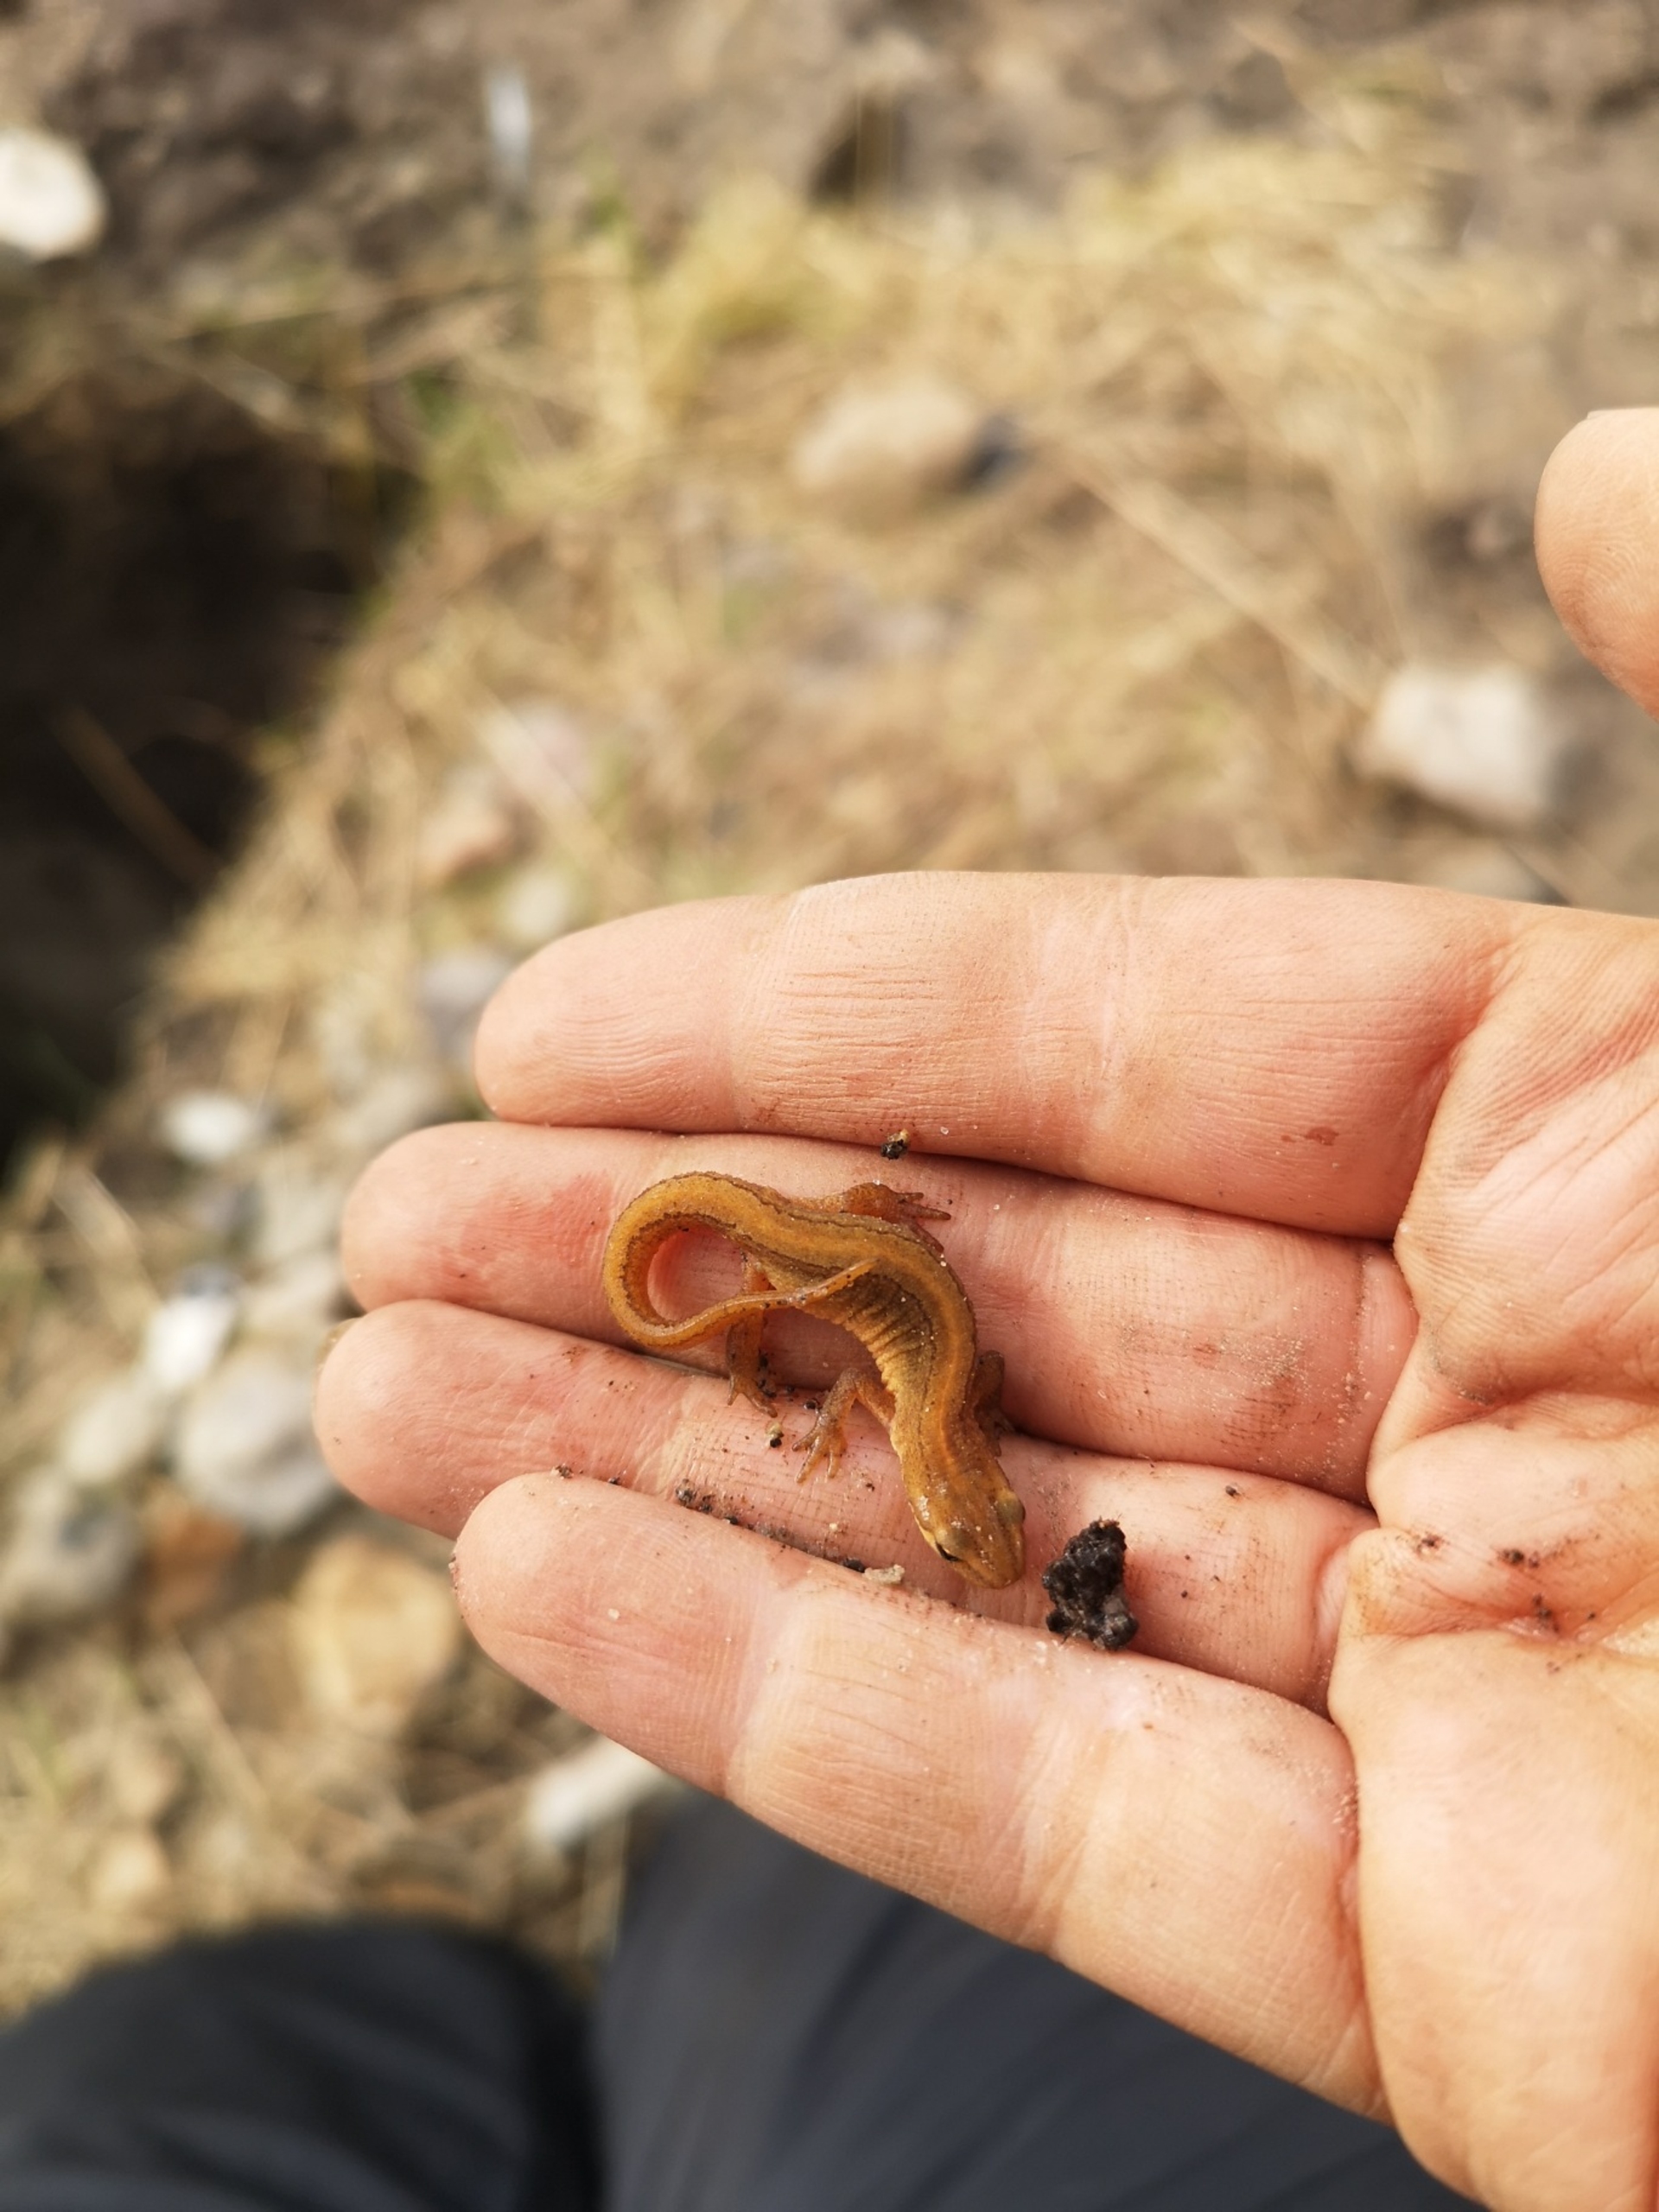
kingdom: Animalia
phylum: Chordata
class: Amphibia
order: Caudata
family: Salamandridae
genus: Lissotriton
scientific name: Lissotriton vulgaris
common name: Lille vandsalamander
